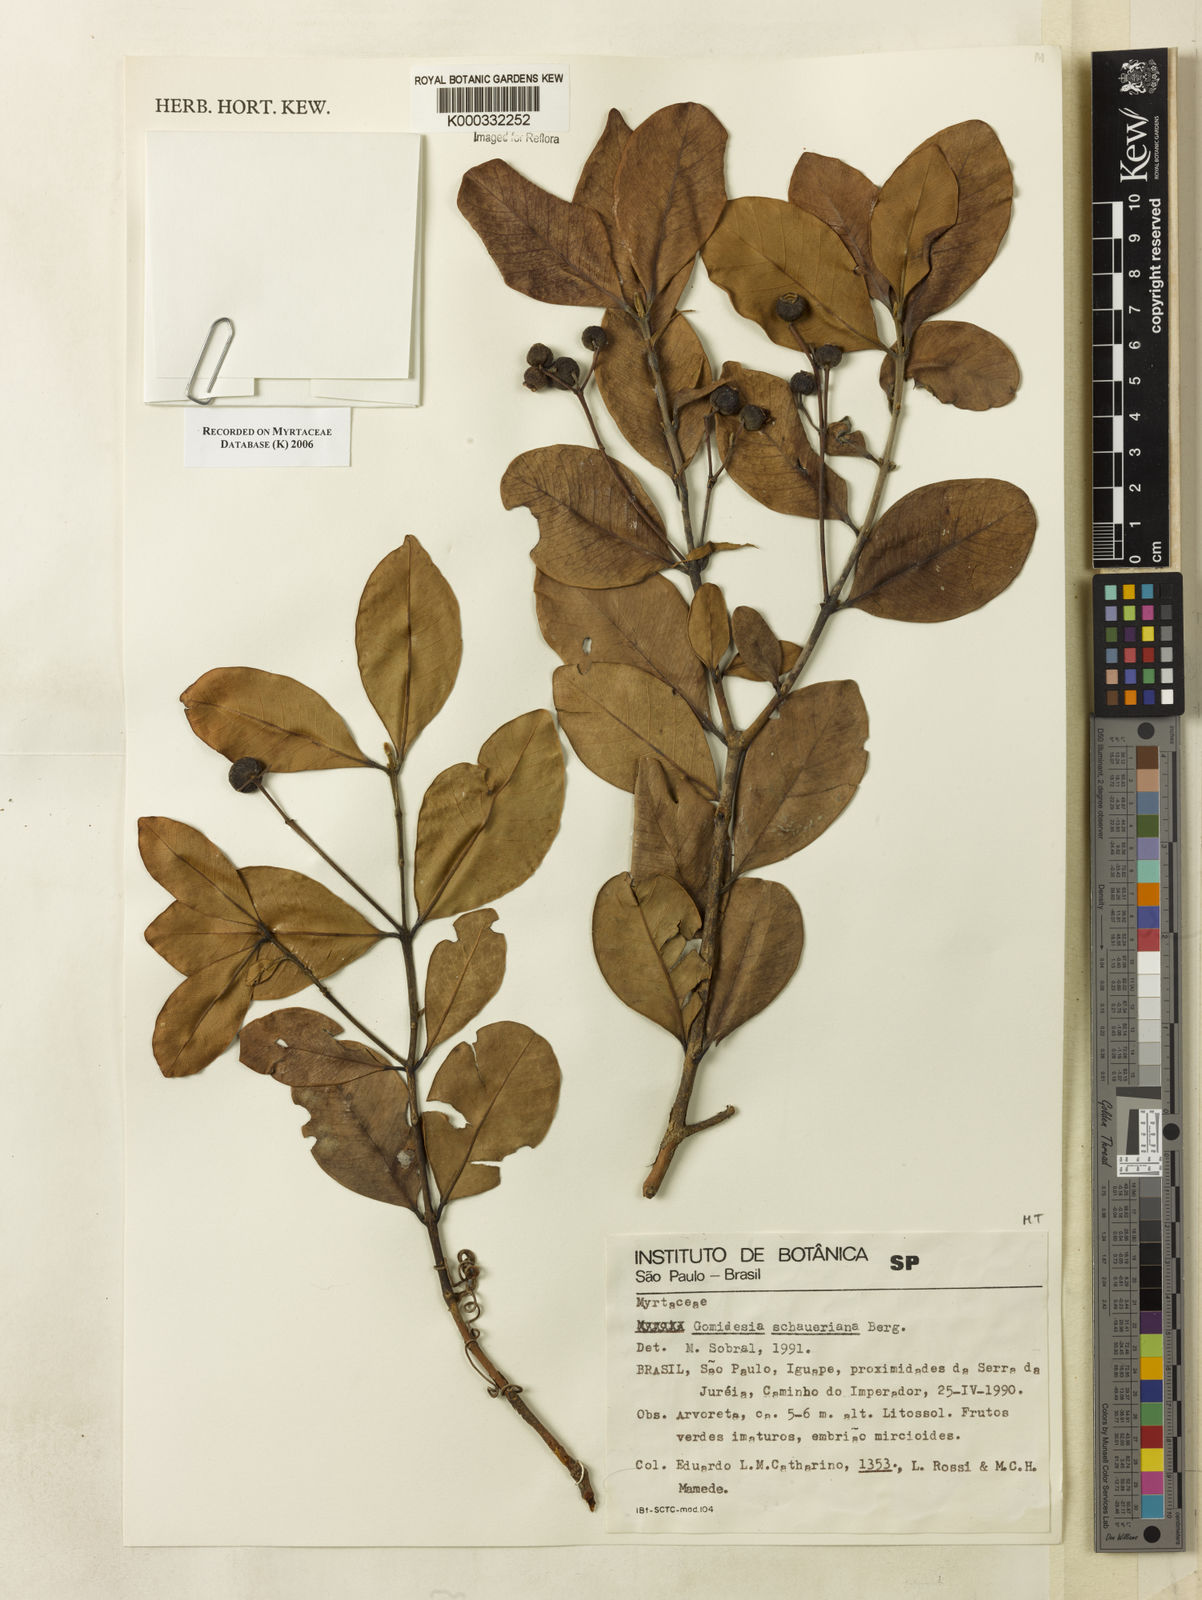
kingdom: Plantae
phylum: Tracheophyta
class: Magnoliopsida
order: Myrtales
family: Myrtaceae
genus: Myrcia
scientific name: Myrcia freyreissiana
